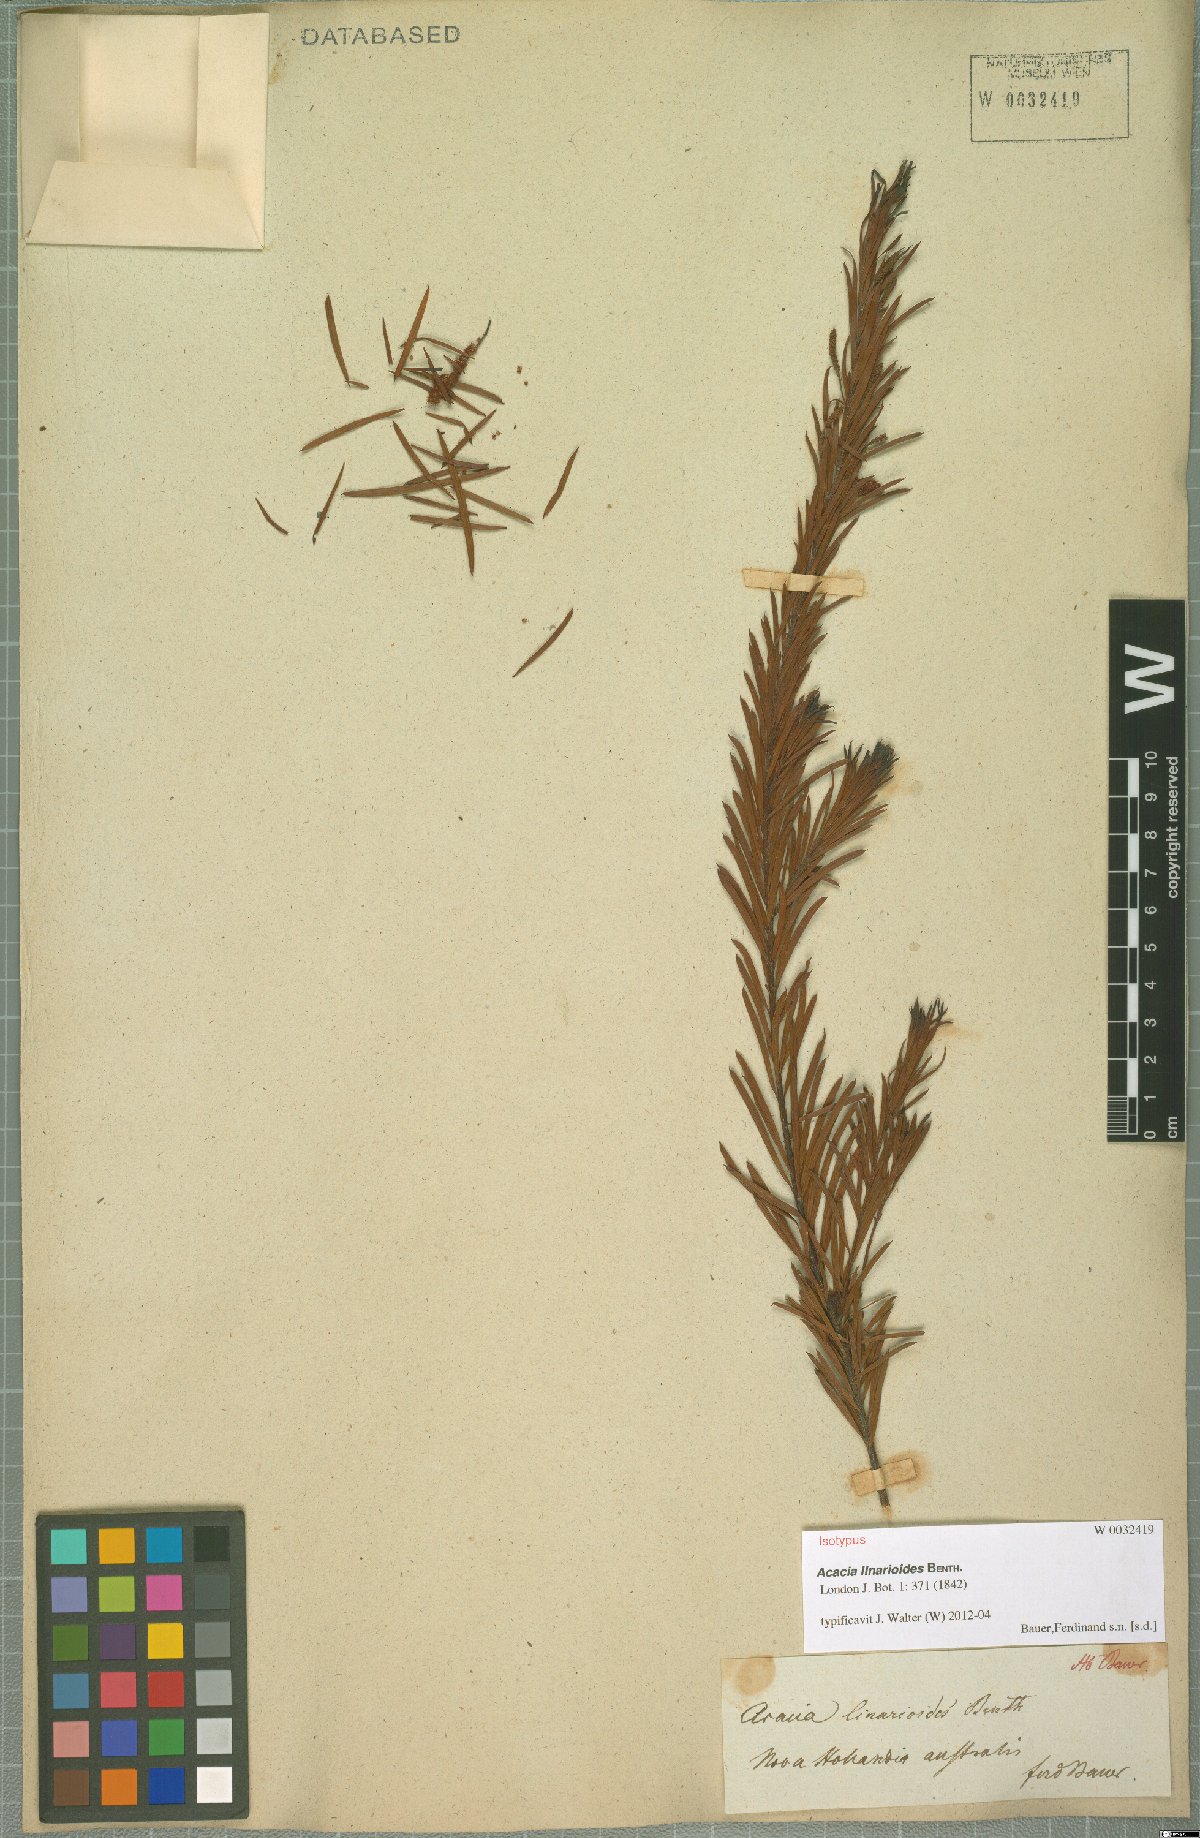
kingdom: Plantae
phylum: Tracheophyta
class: Magnoliopsida
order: Fabales
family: Fabaceae
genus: Acacia
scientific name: Acacia linarioides
